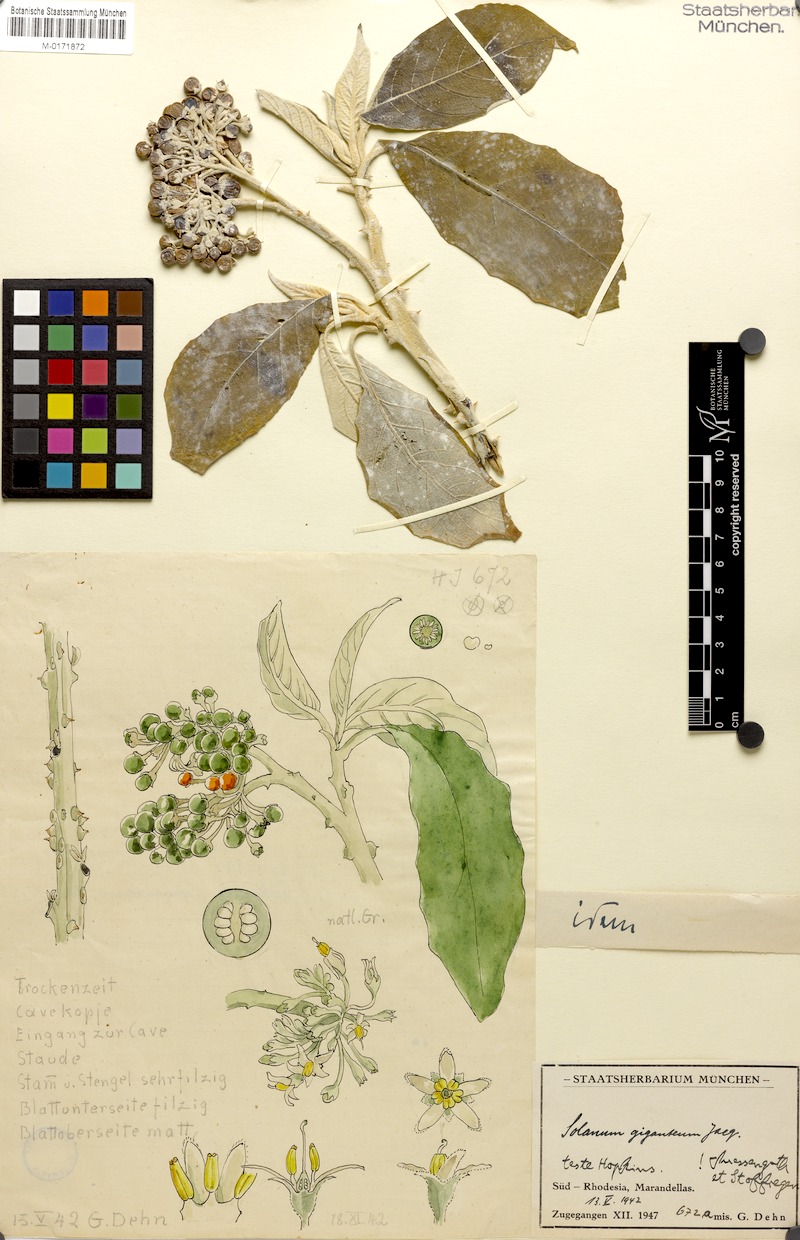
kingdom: Plantae
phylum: Tracheophyta
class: Magnoliopsida
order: Solanales
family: Solanaceae
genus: Solanum
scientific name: Solanum giganteum
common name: Healing-leaf-tree
